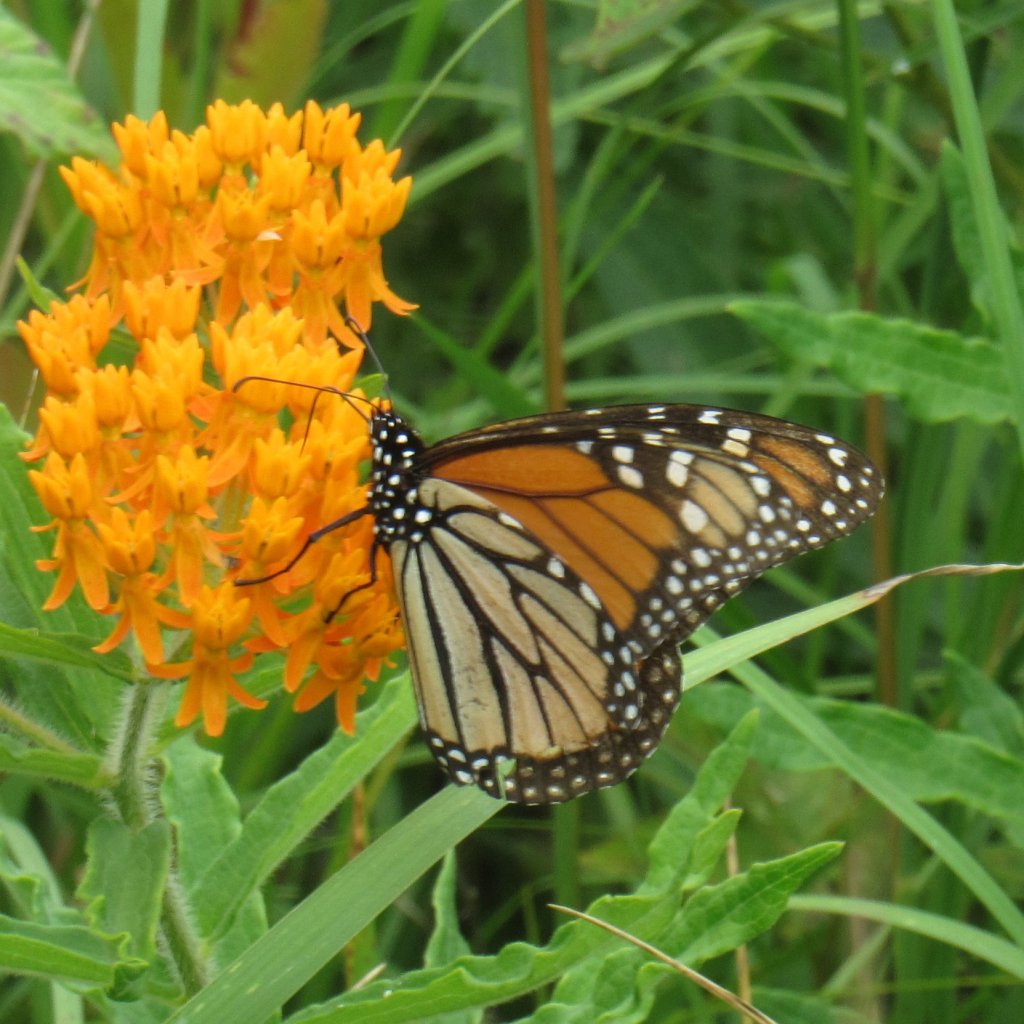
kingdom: Animalia
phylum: Arthropoda
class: Insecta
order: Lepidoptera
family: Nymphalidae
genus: Danaus
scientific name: Danaus plexippus
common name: Monarch
